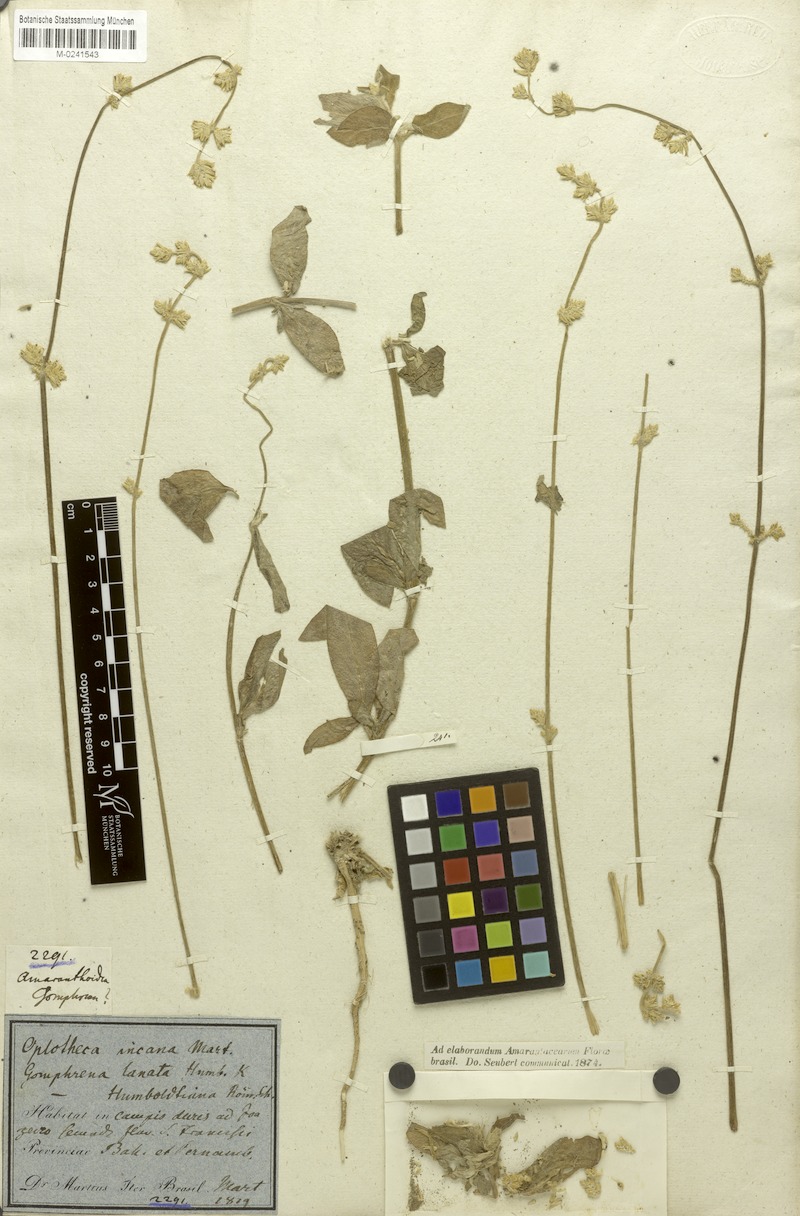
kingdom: Plantae
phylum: Tracheophyta
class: Magnoliopsida
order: Caryophyllales
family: Amaranthaceae
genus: Froelichia
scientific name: Froelichia humboldtiana
